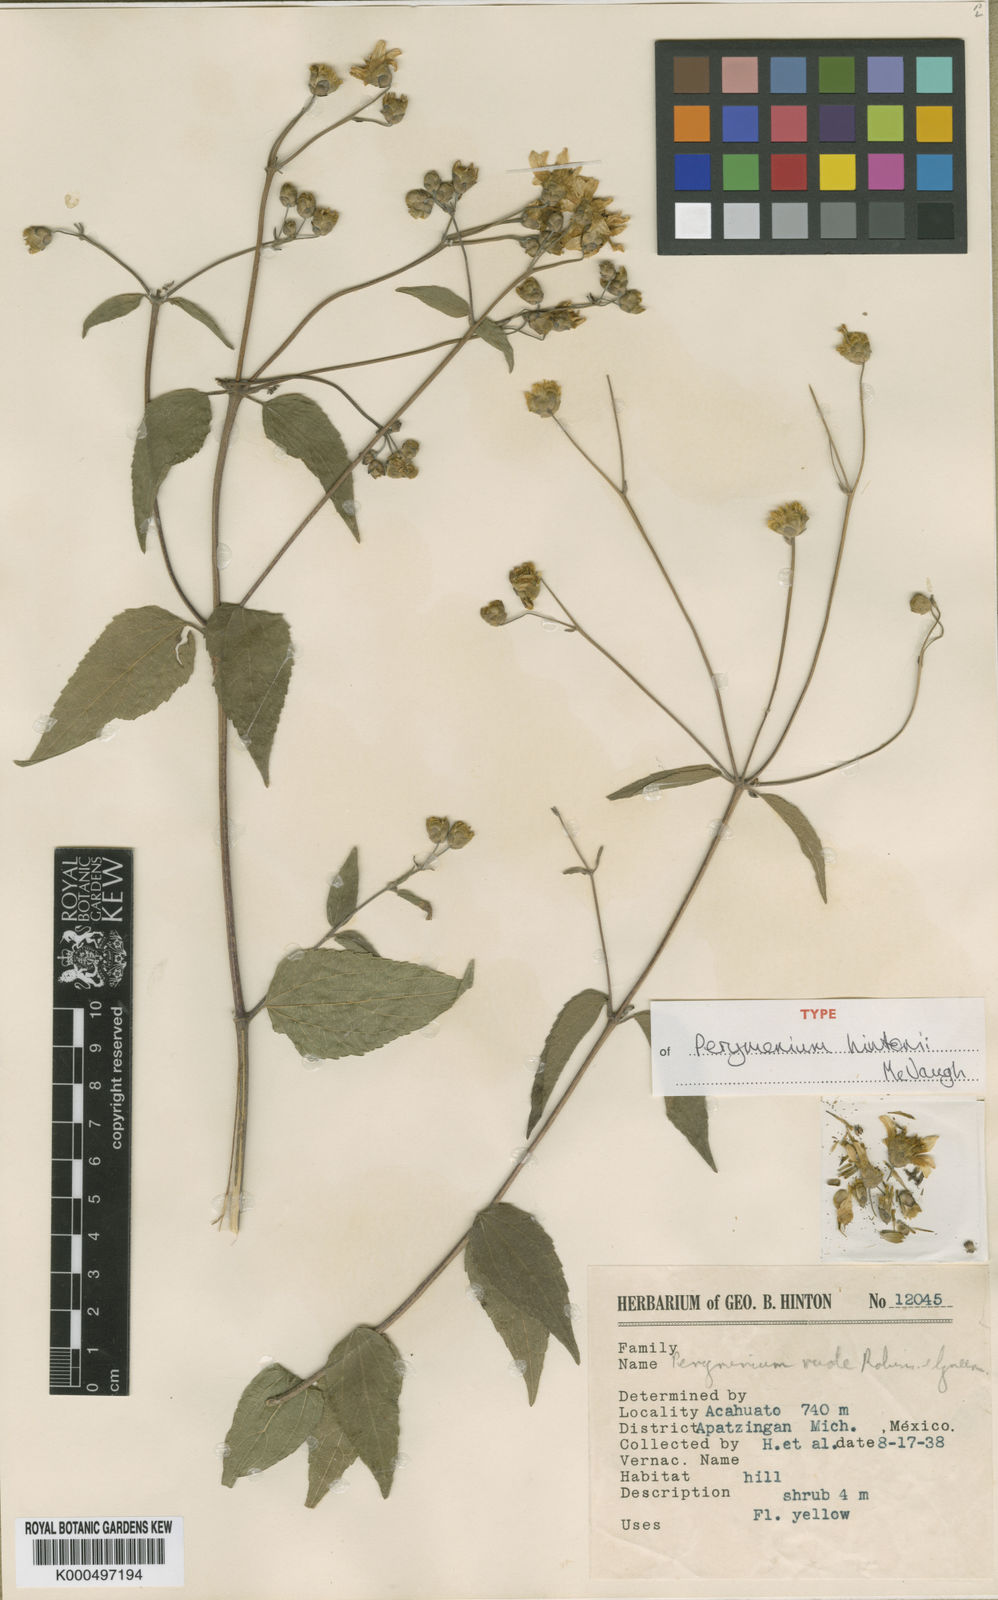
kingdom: Plantae
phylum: Tracheophyta
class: Magnoliopsida
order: Asterales
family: Asteraceae
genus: Perymenium
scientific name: Perymenium hintonii
